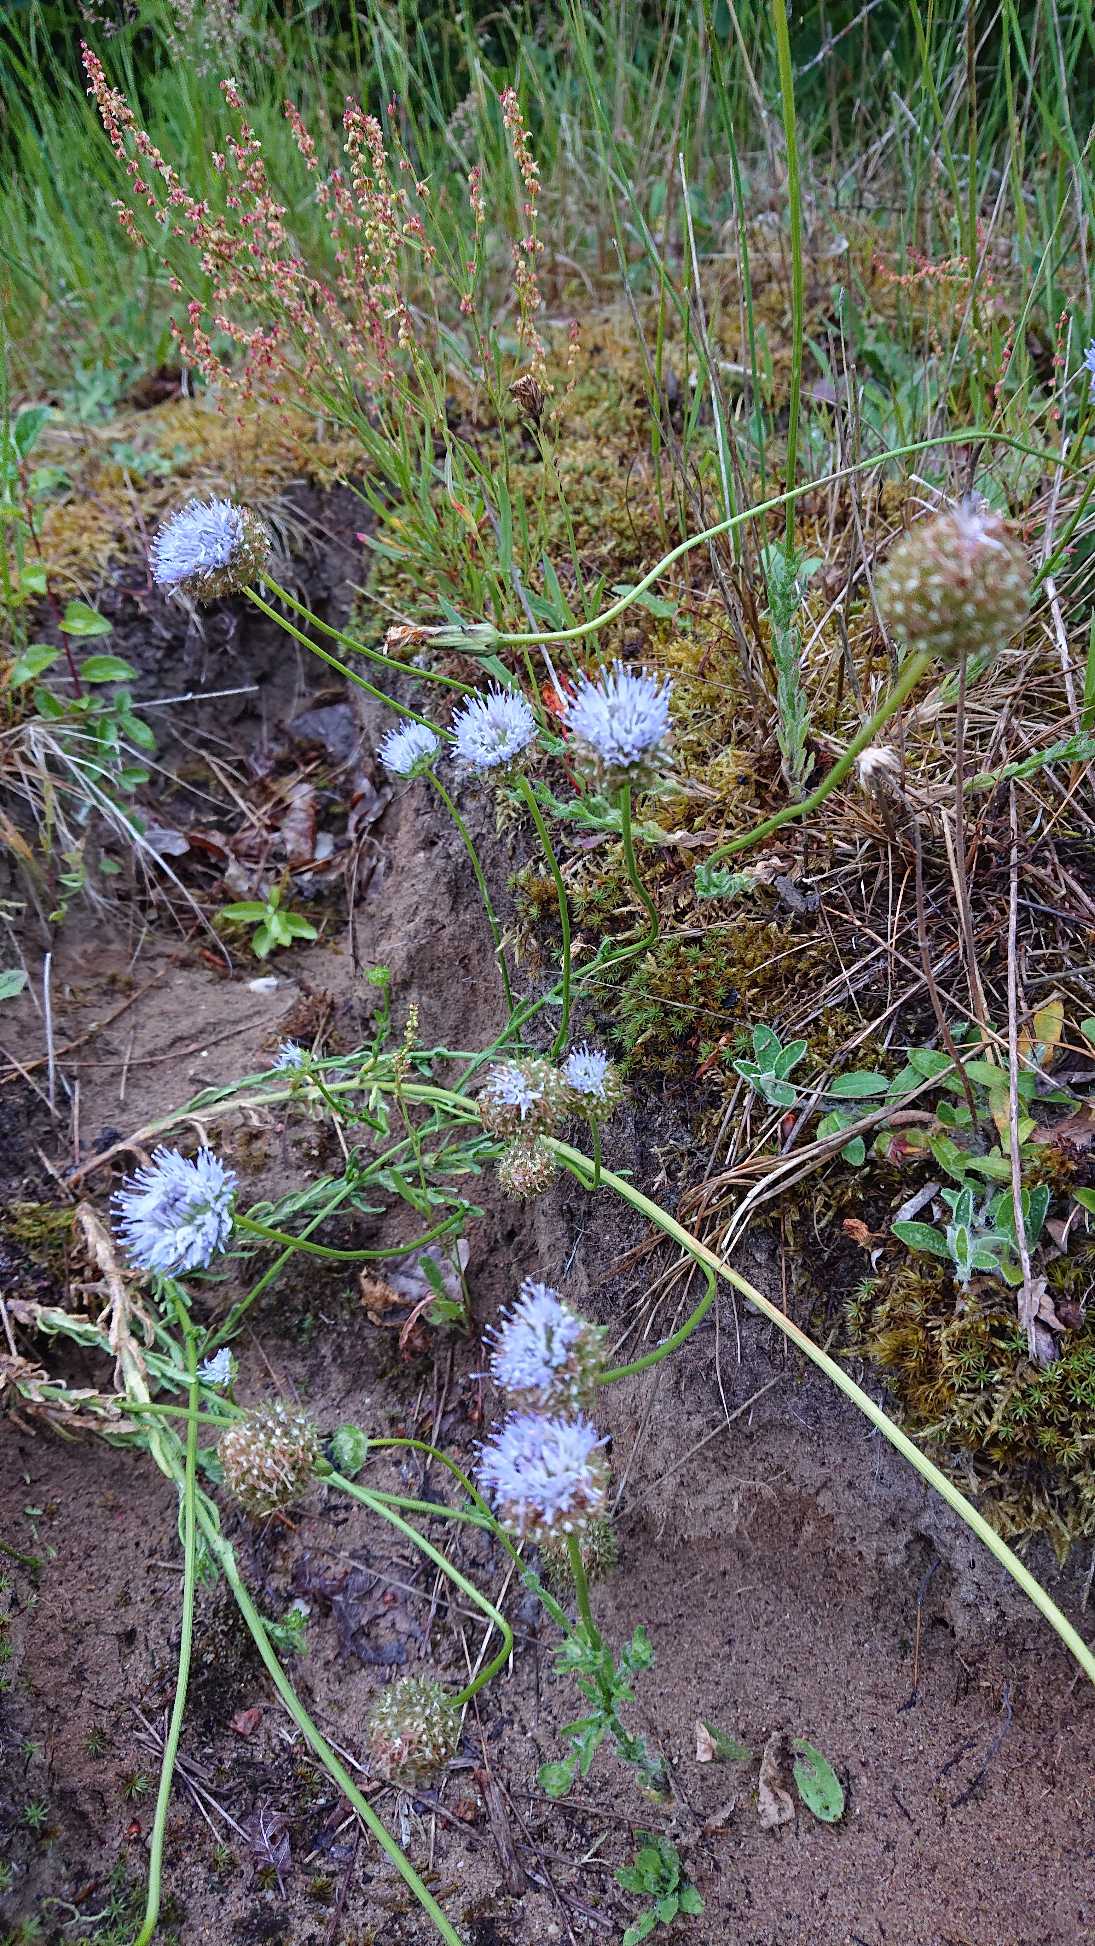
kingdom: Plantae
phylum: Tracheophyta
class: Magnoliopsida
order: Asterales
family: Campanulaceae
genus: Jasione
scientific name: Jasione montana
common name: Blåmunke
